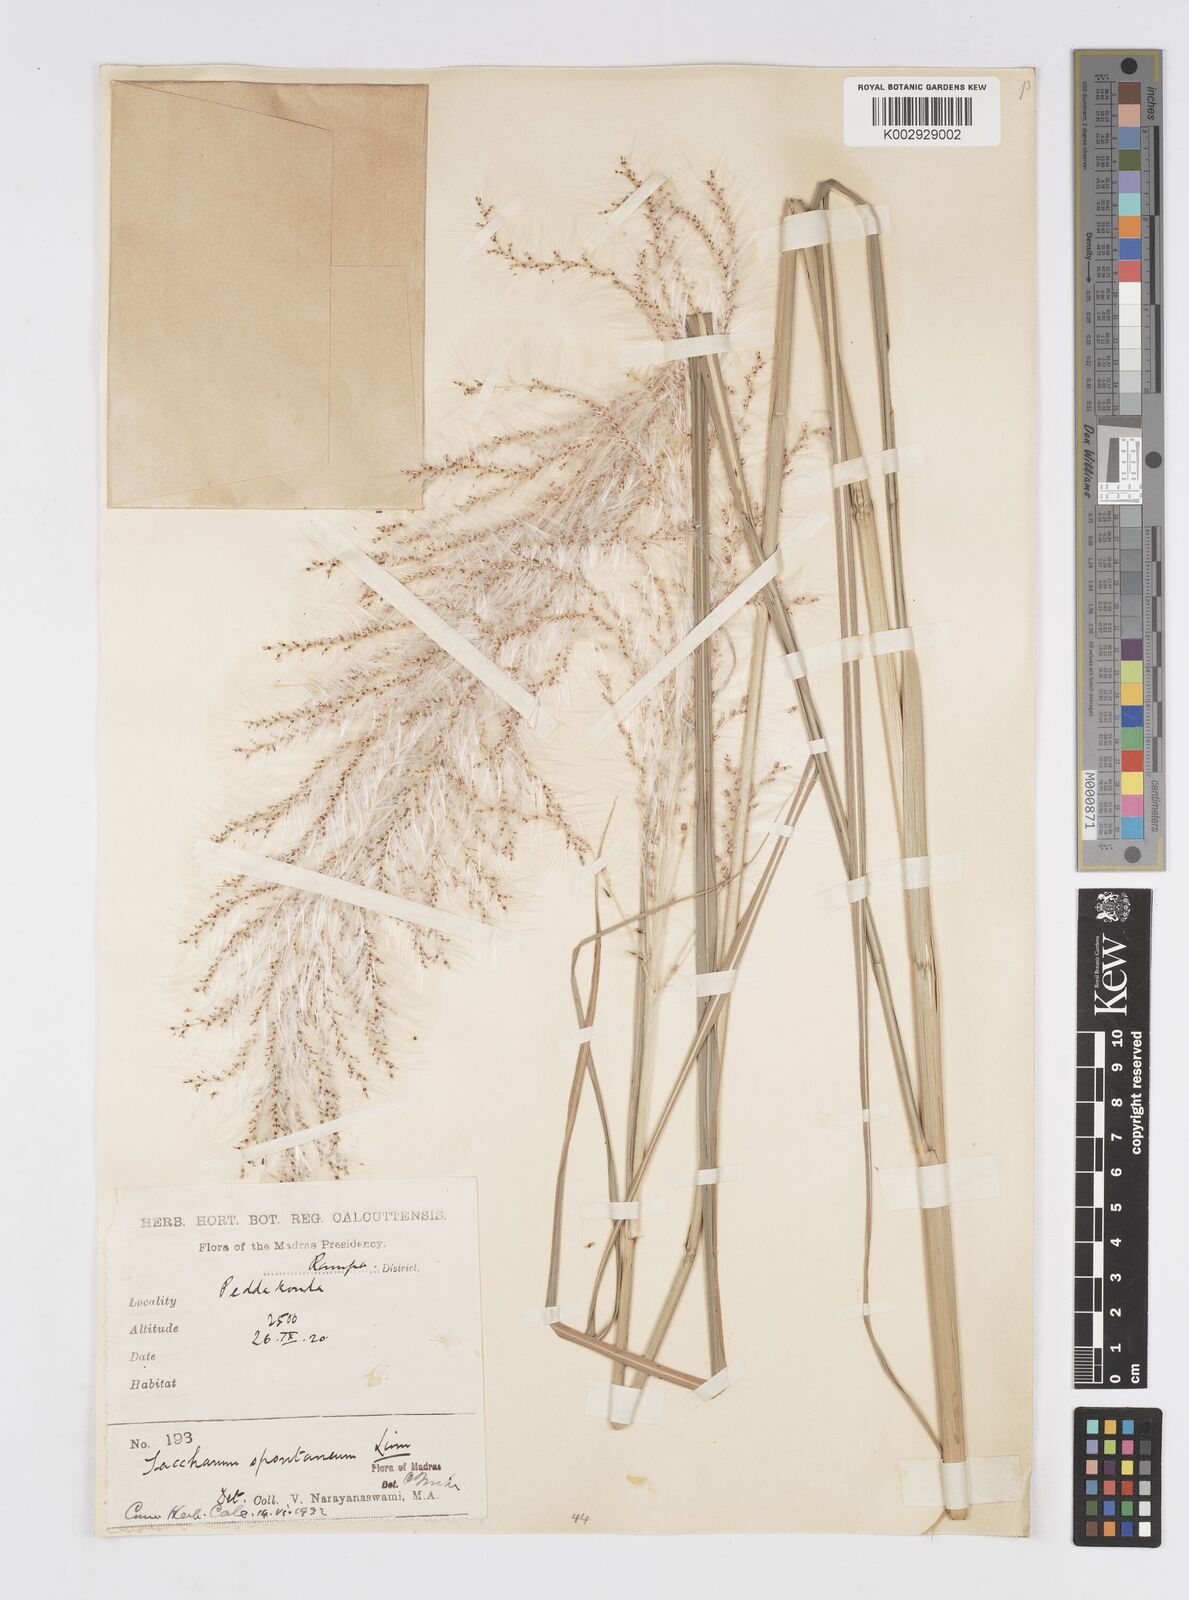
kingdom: Plantae
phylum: Tracheophyta
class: Liliopsida
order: Poales
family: Poaceae
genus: Saccharum
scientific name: Saccharum spontaneum
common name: Wild sugarcane
